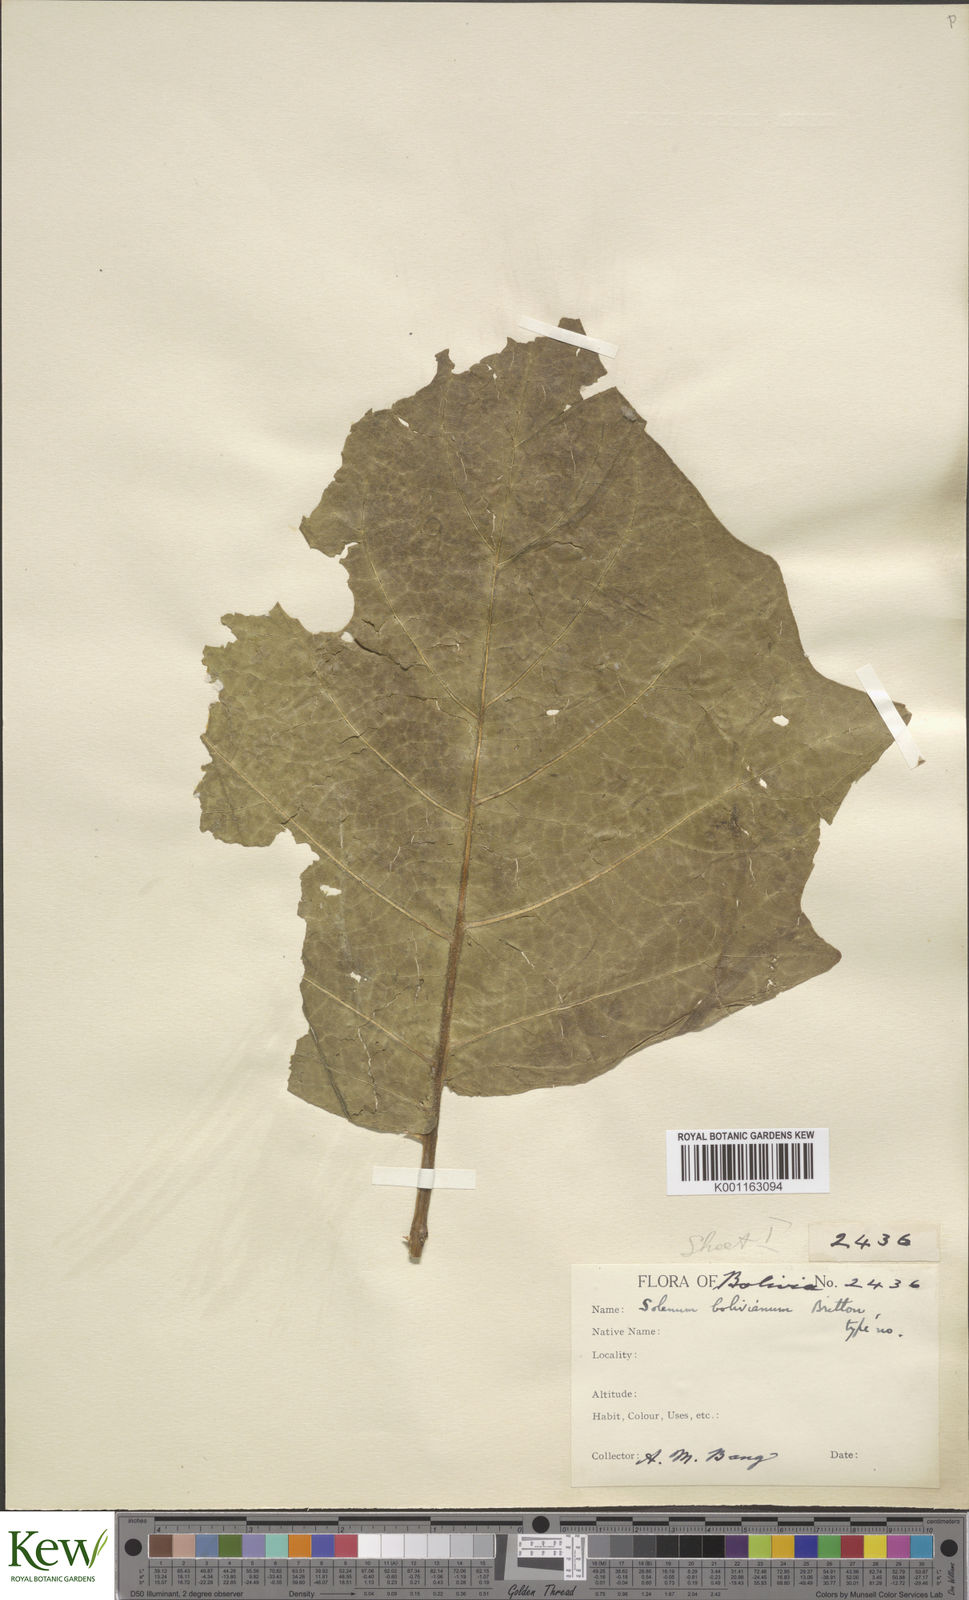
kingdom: Plantae
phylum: Tracheophyta
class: Magnoliopsida
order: Solanales
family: Solanaceae
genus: Solanum
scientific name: Solanum bolivianum
